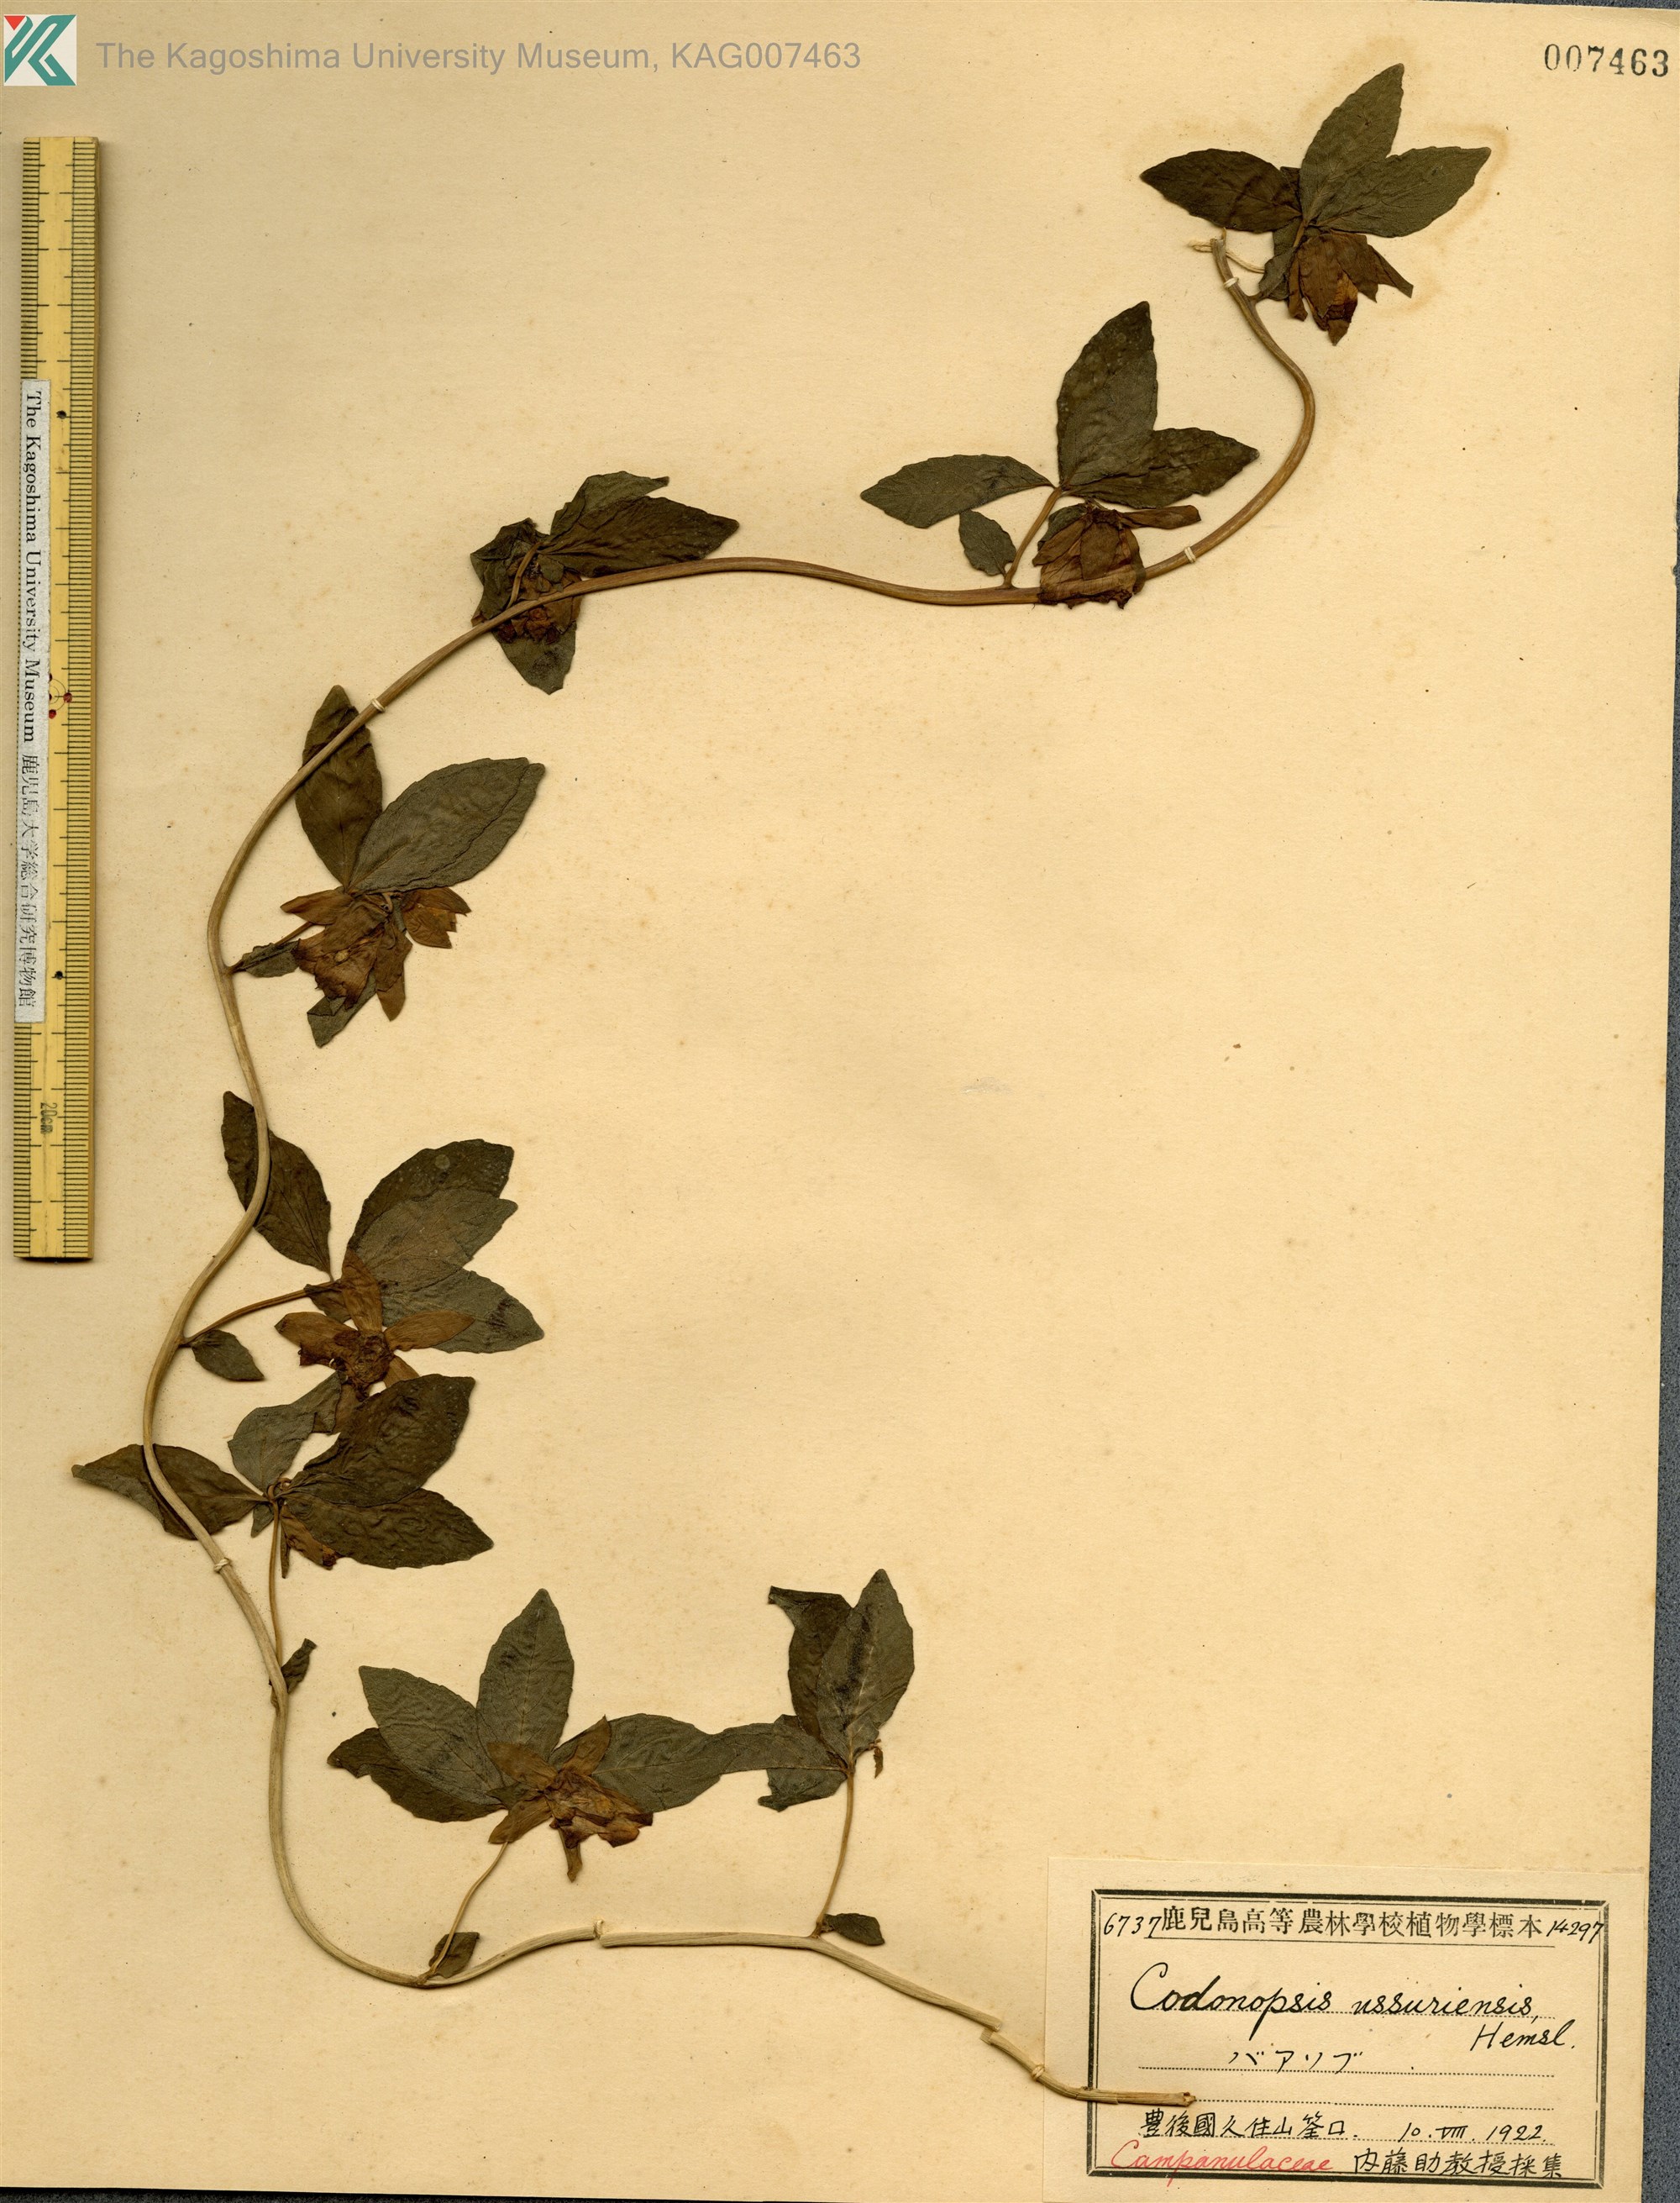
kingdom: Plantae
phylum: Tracheophyta
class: Magnoliopsida
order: Asterales
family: Campanulaceae
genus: Codonopsis
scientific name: Codonopsis ussuriensis
